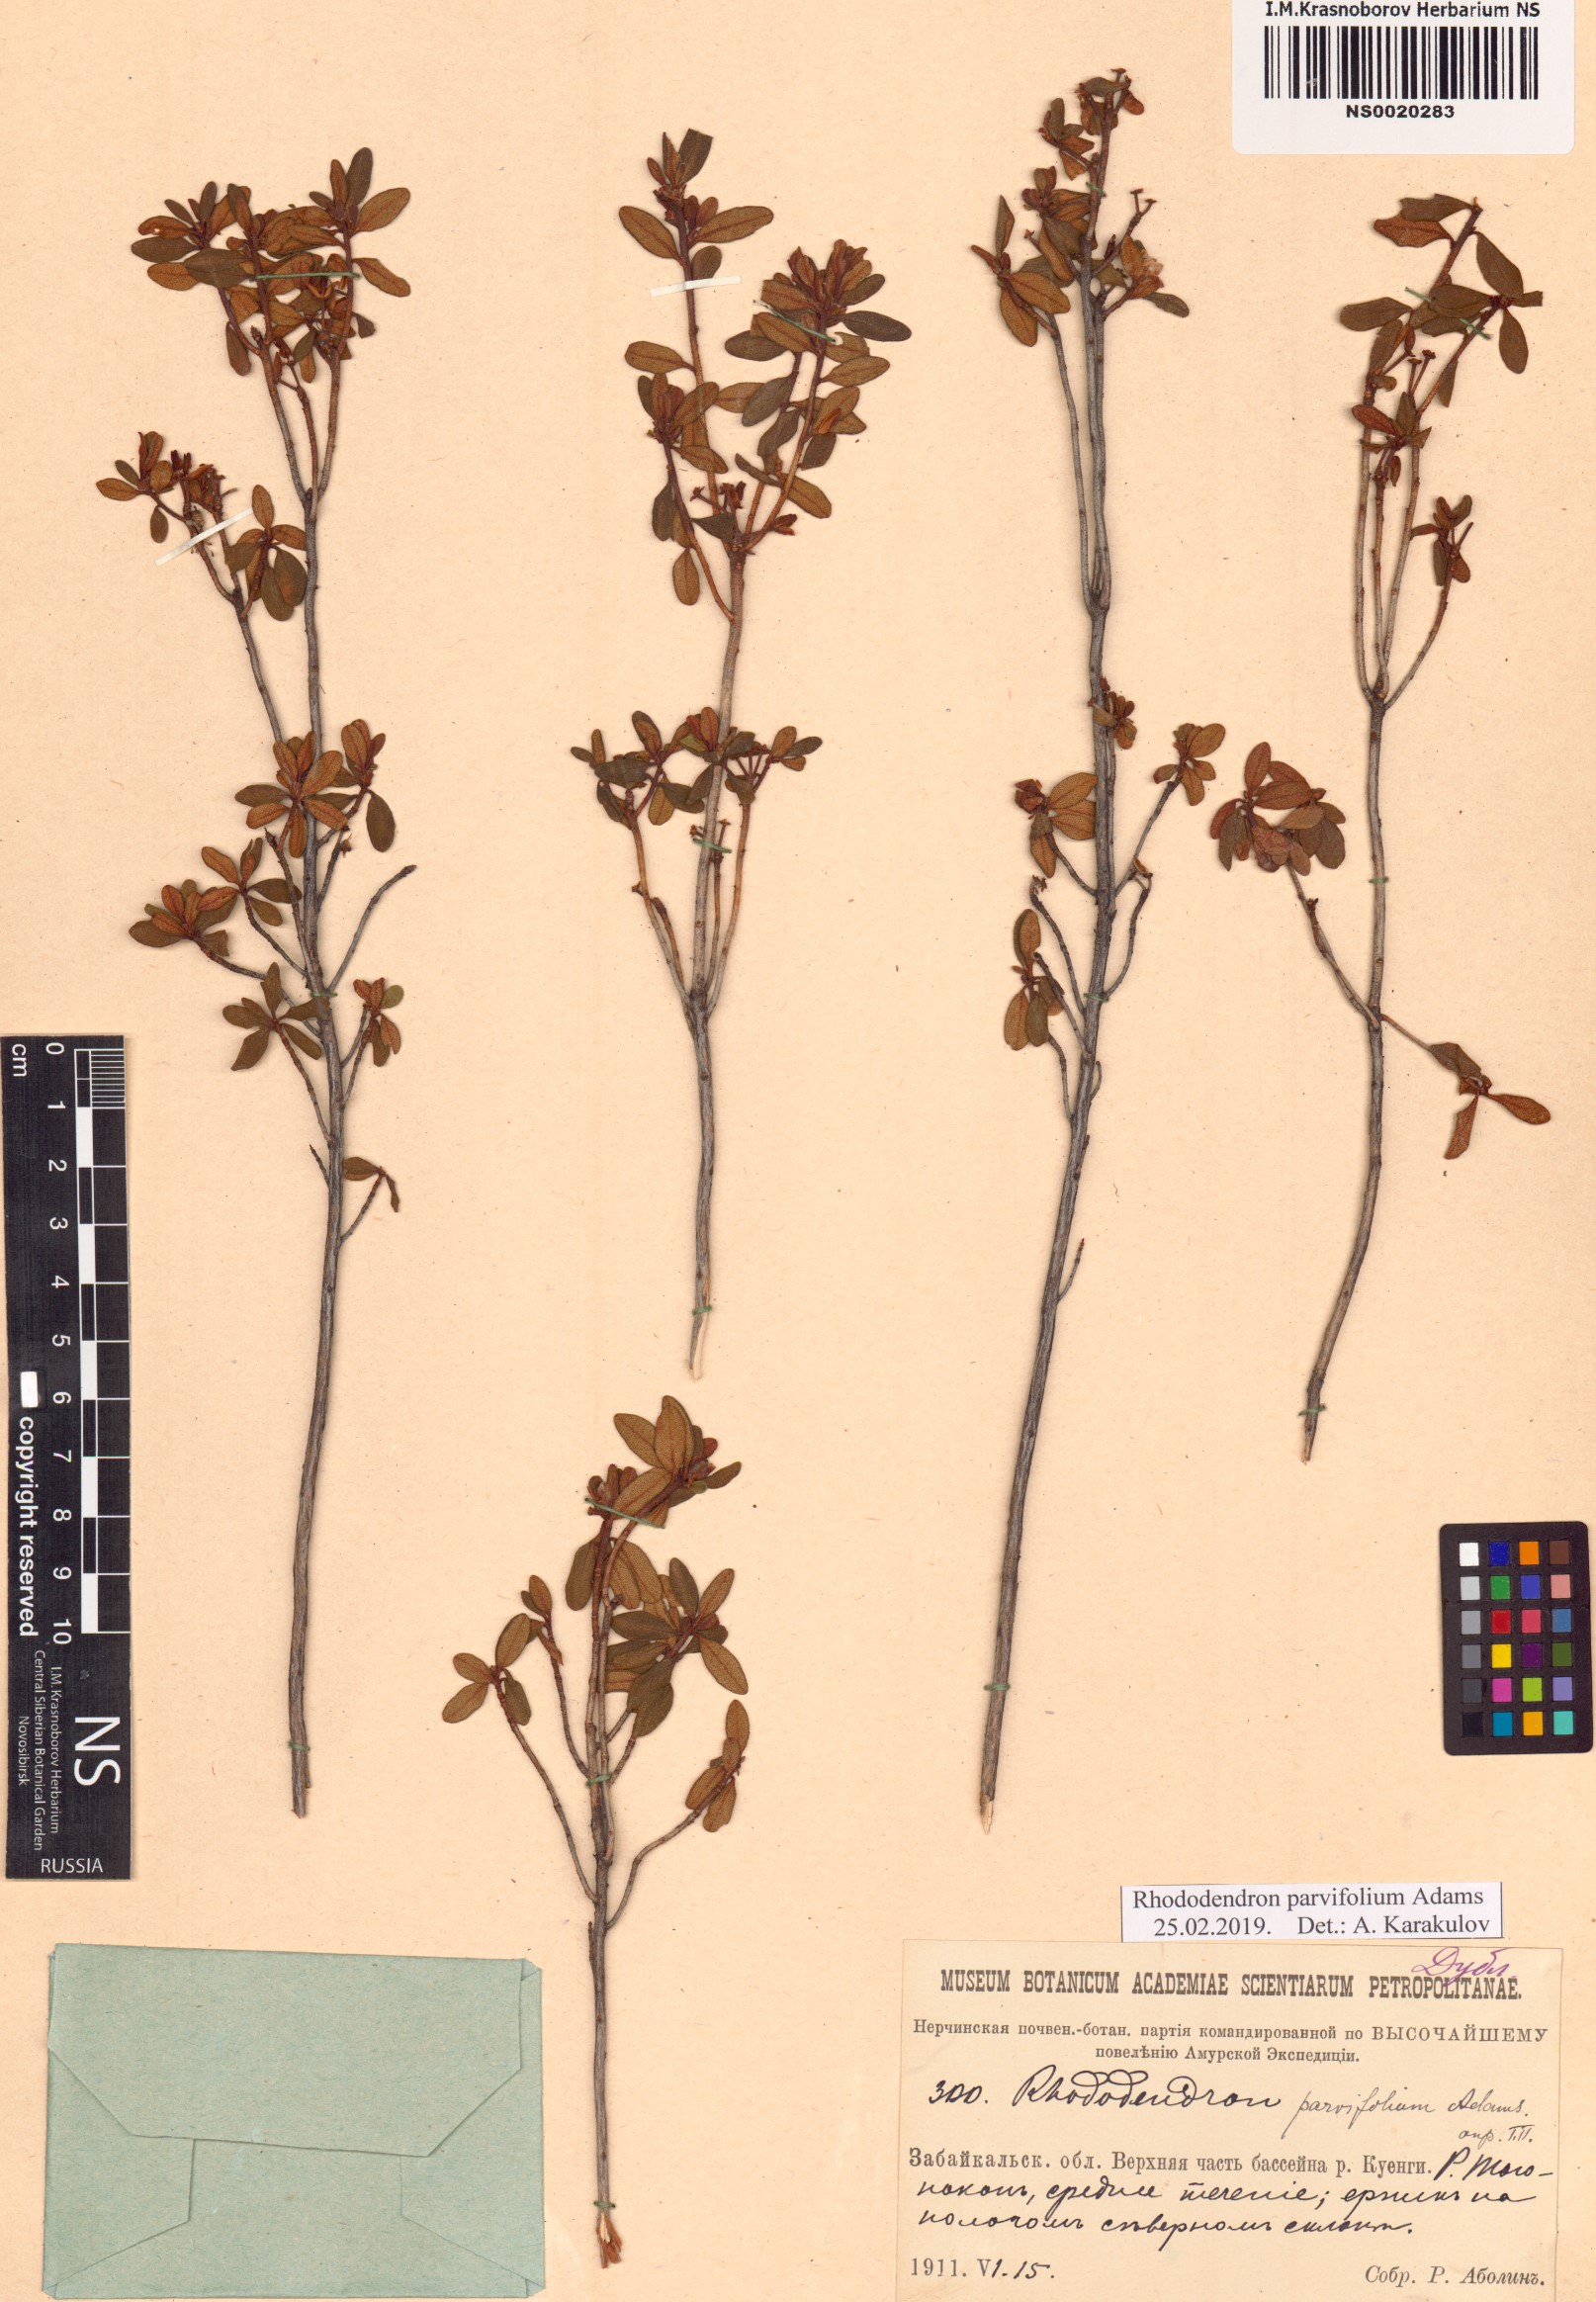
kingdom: Plantae
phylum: Tracheophyta
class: Magnoliopsida
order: Ericales
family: Ericaceae
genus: Rhododendron
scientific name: Rhododendron parvifolium
